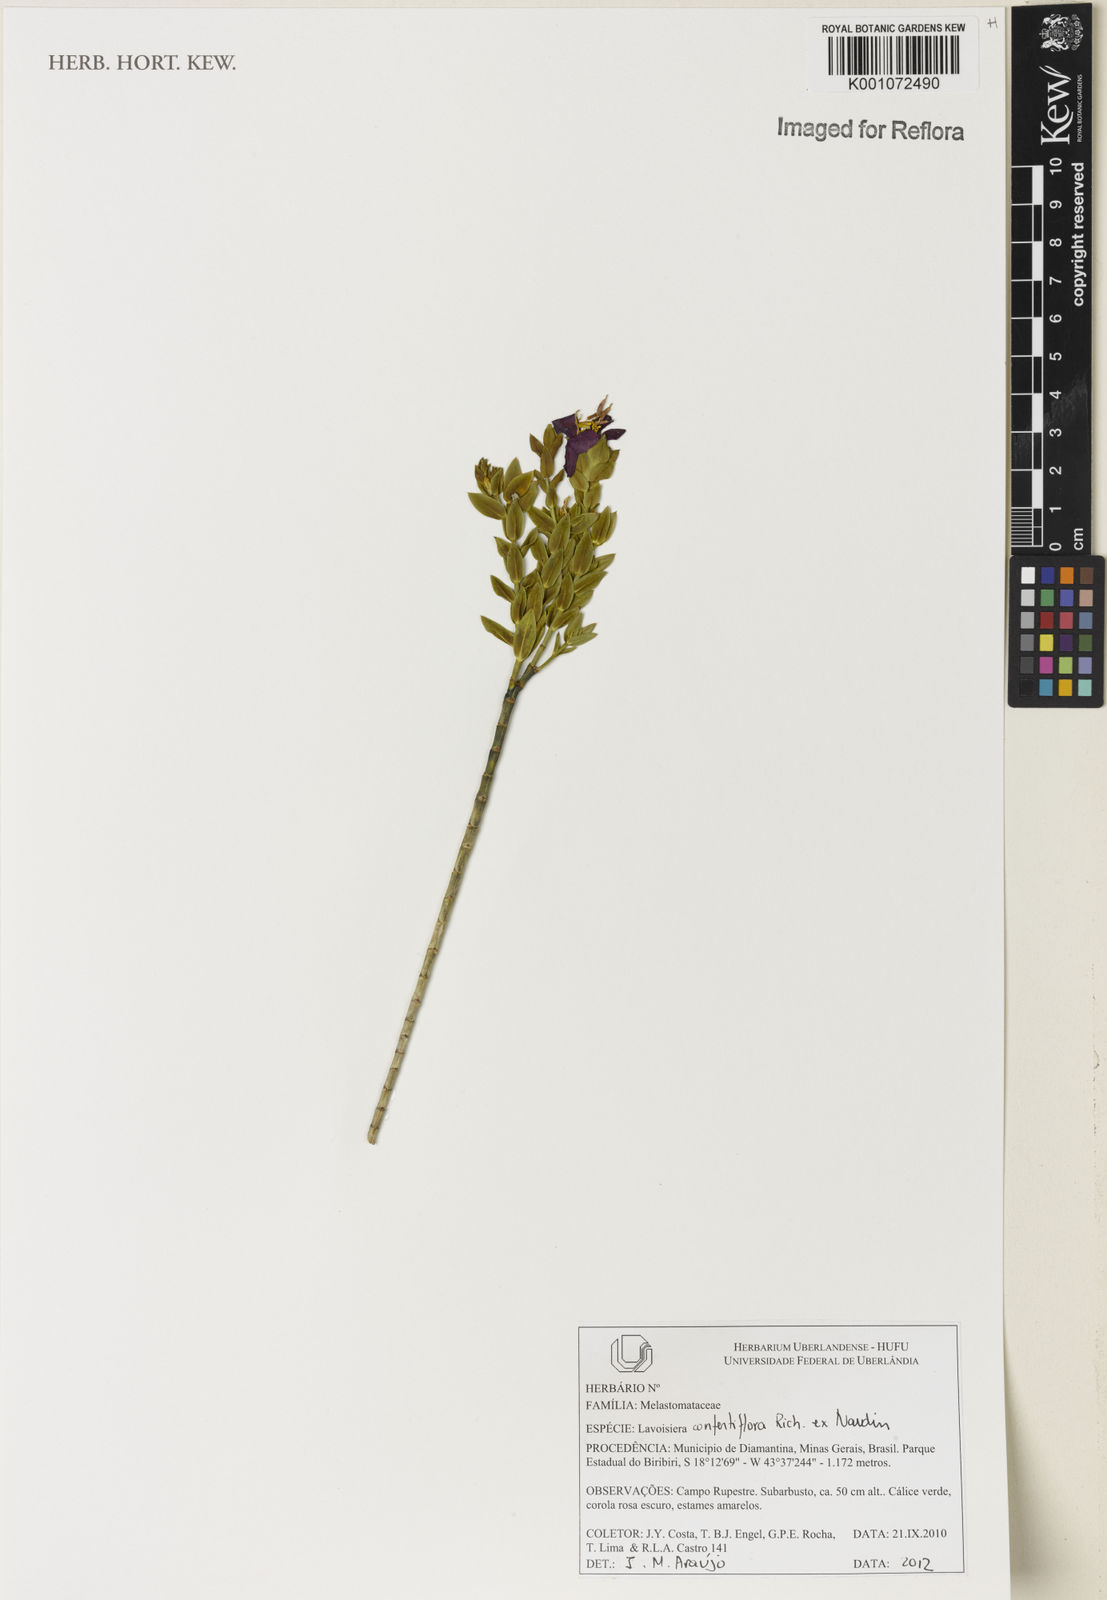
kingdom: Plantae
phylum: Tracheophyta
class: Magnoliopsida
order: Myrtales
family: Melastomataceae
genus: Microlicia
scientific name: Microlicia congestiflora
